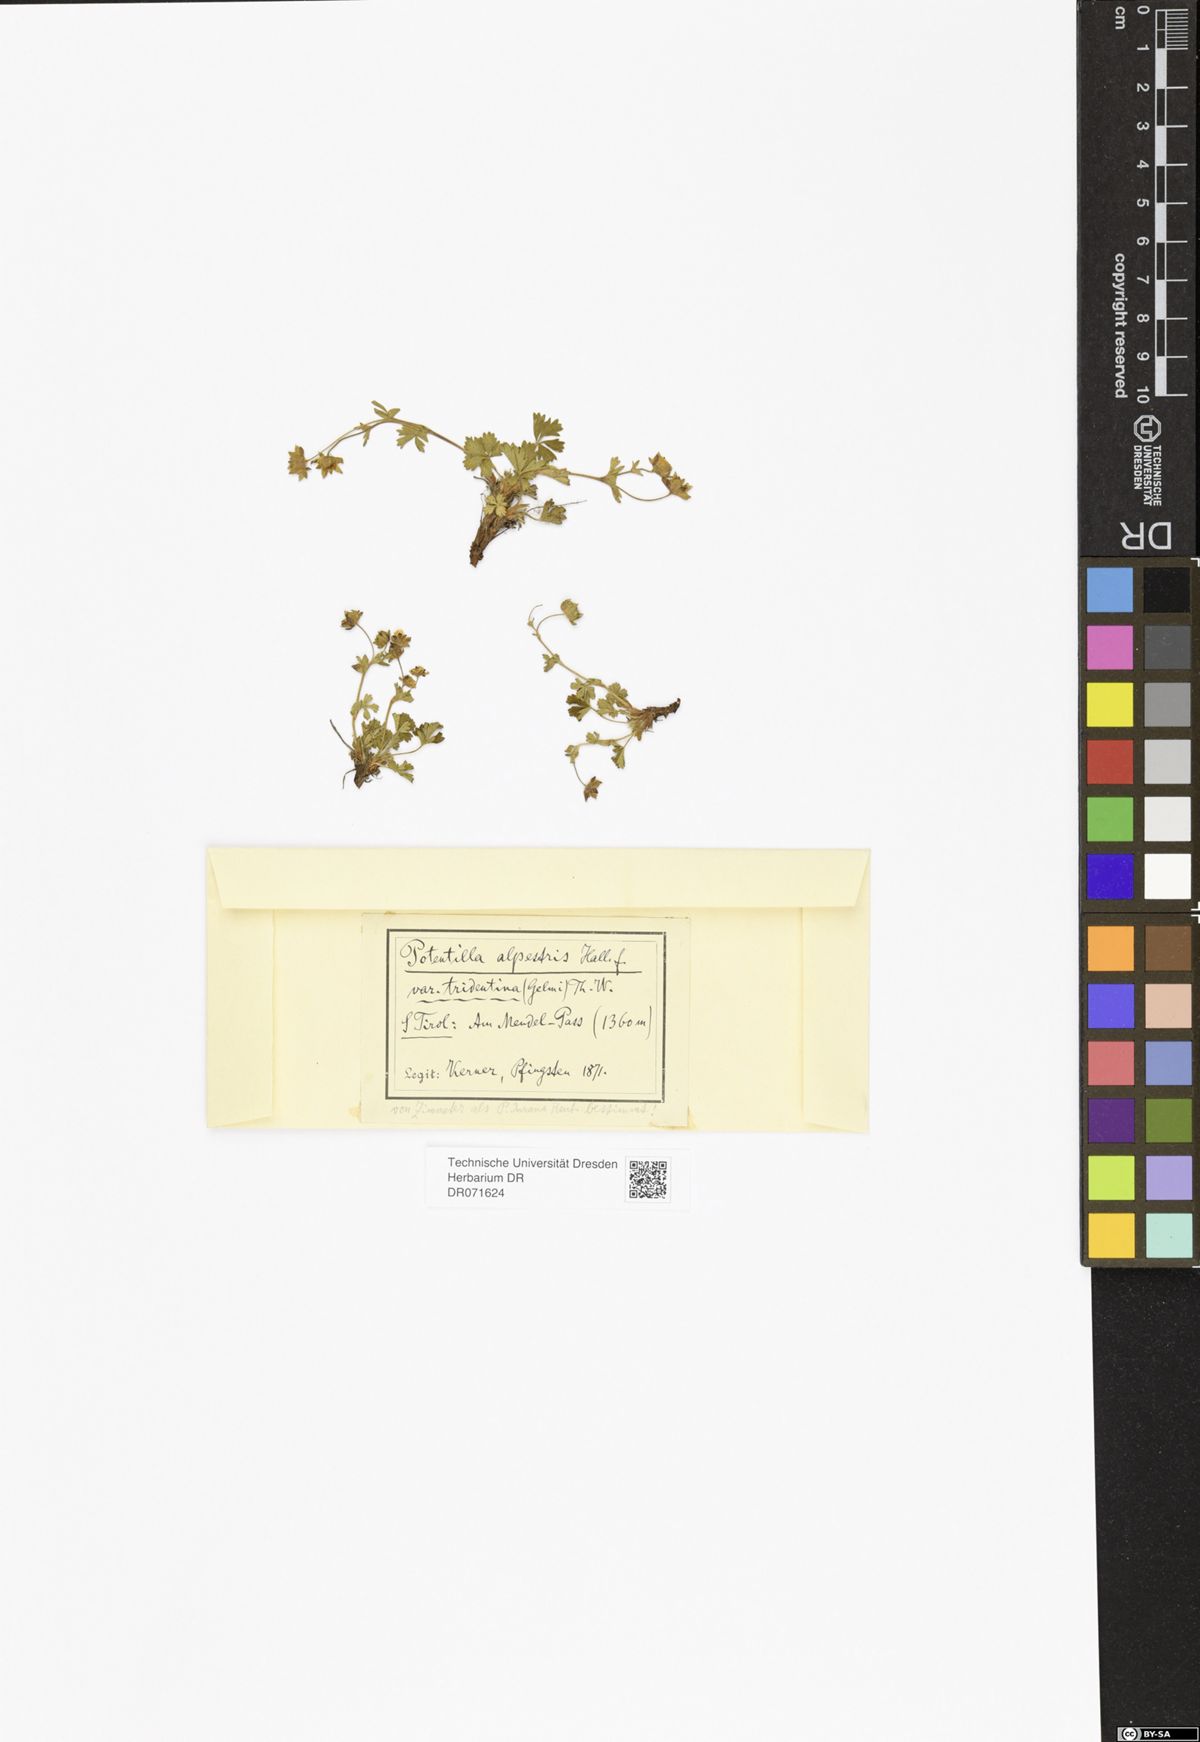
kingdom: Plantae
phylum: Tracheophyta
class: Magnoliopsida
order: Rosales
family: Rosaceae
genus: Potentilla
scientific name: Potentilla crantzii
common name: Alpine cinquefoil
